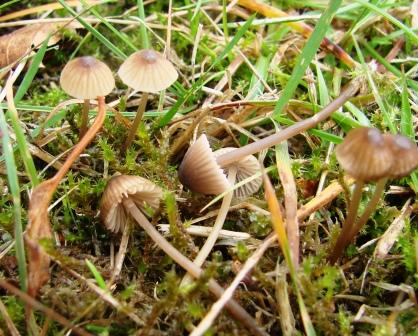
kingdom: Fungi
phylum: Basidiomycota
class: Agaricomycetes
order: Agaricales
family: Mycenaceae
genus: Mycena
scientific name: Mycena olivaceomarginata
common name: brunægget huesvamp
